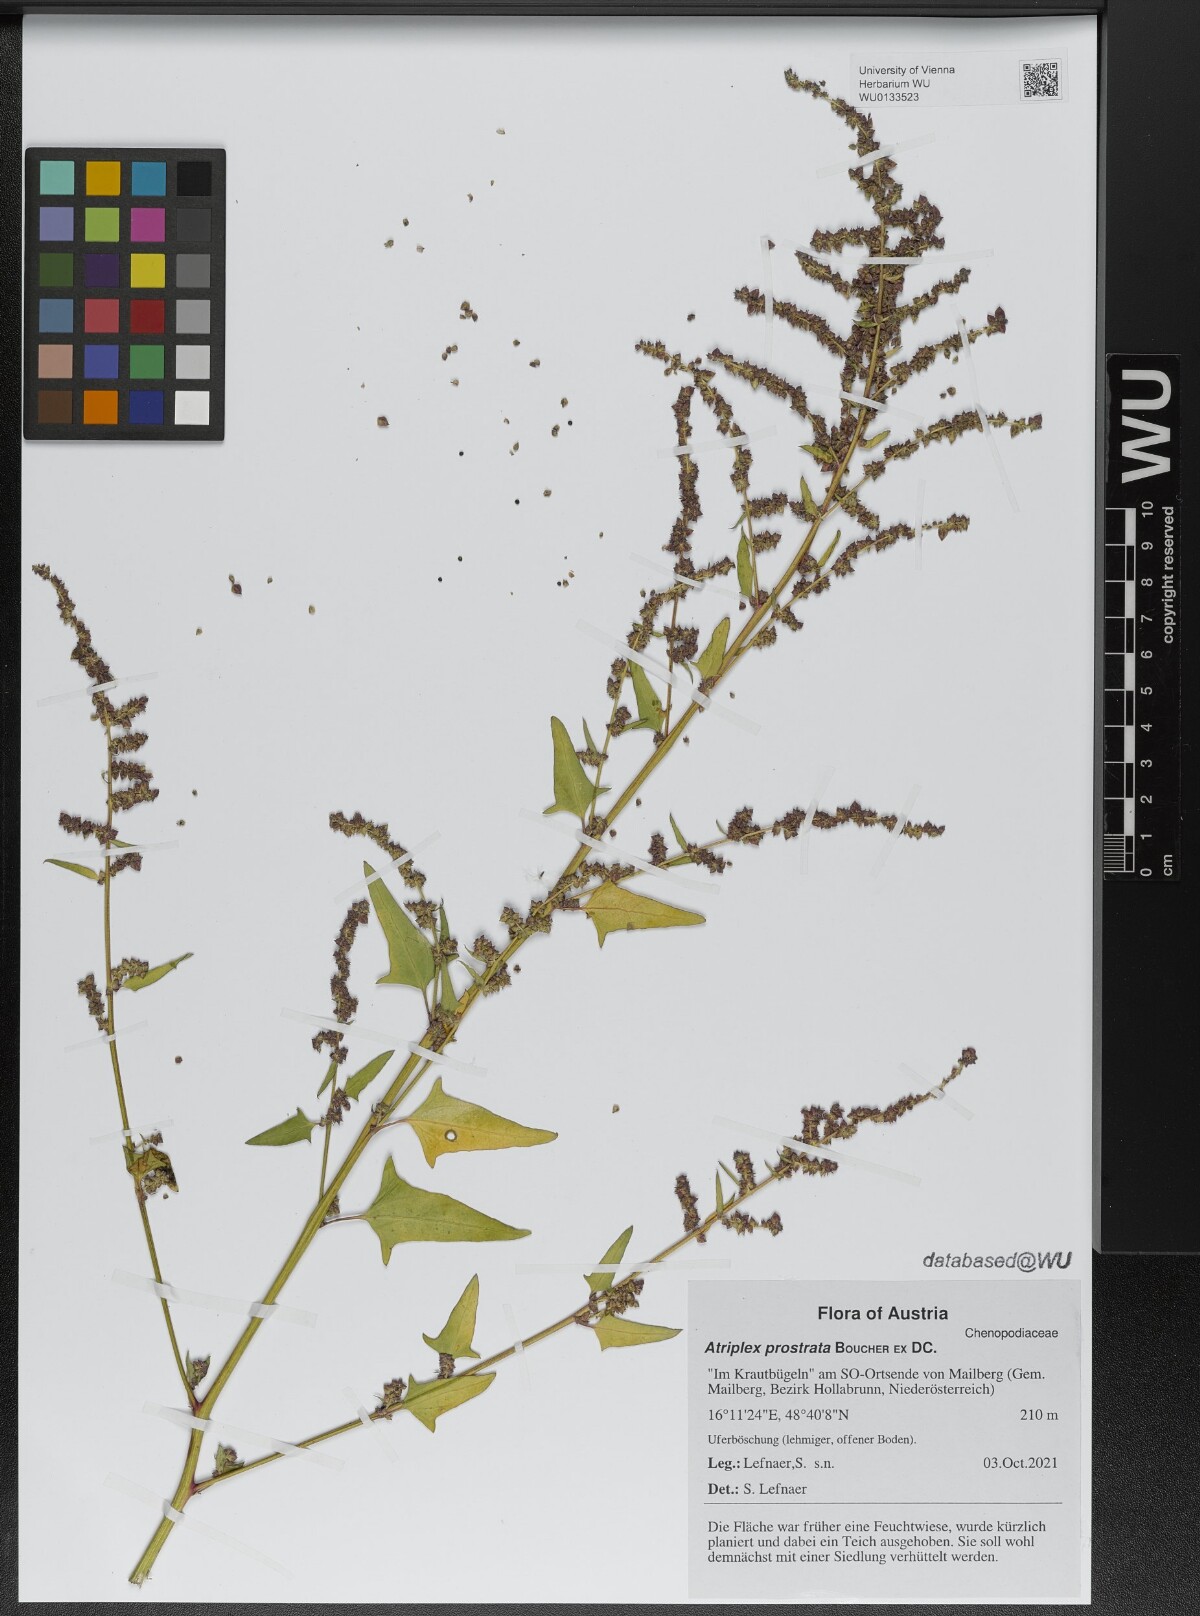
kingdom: Plantae
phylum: Tracheophyta
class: Magnoliopsida
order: Caryophyllales
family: Amaranthaceae
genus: Atriplex
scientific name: Atriplex prostrata
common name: Spear-leaved orache
